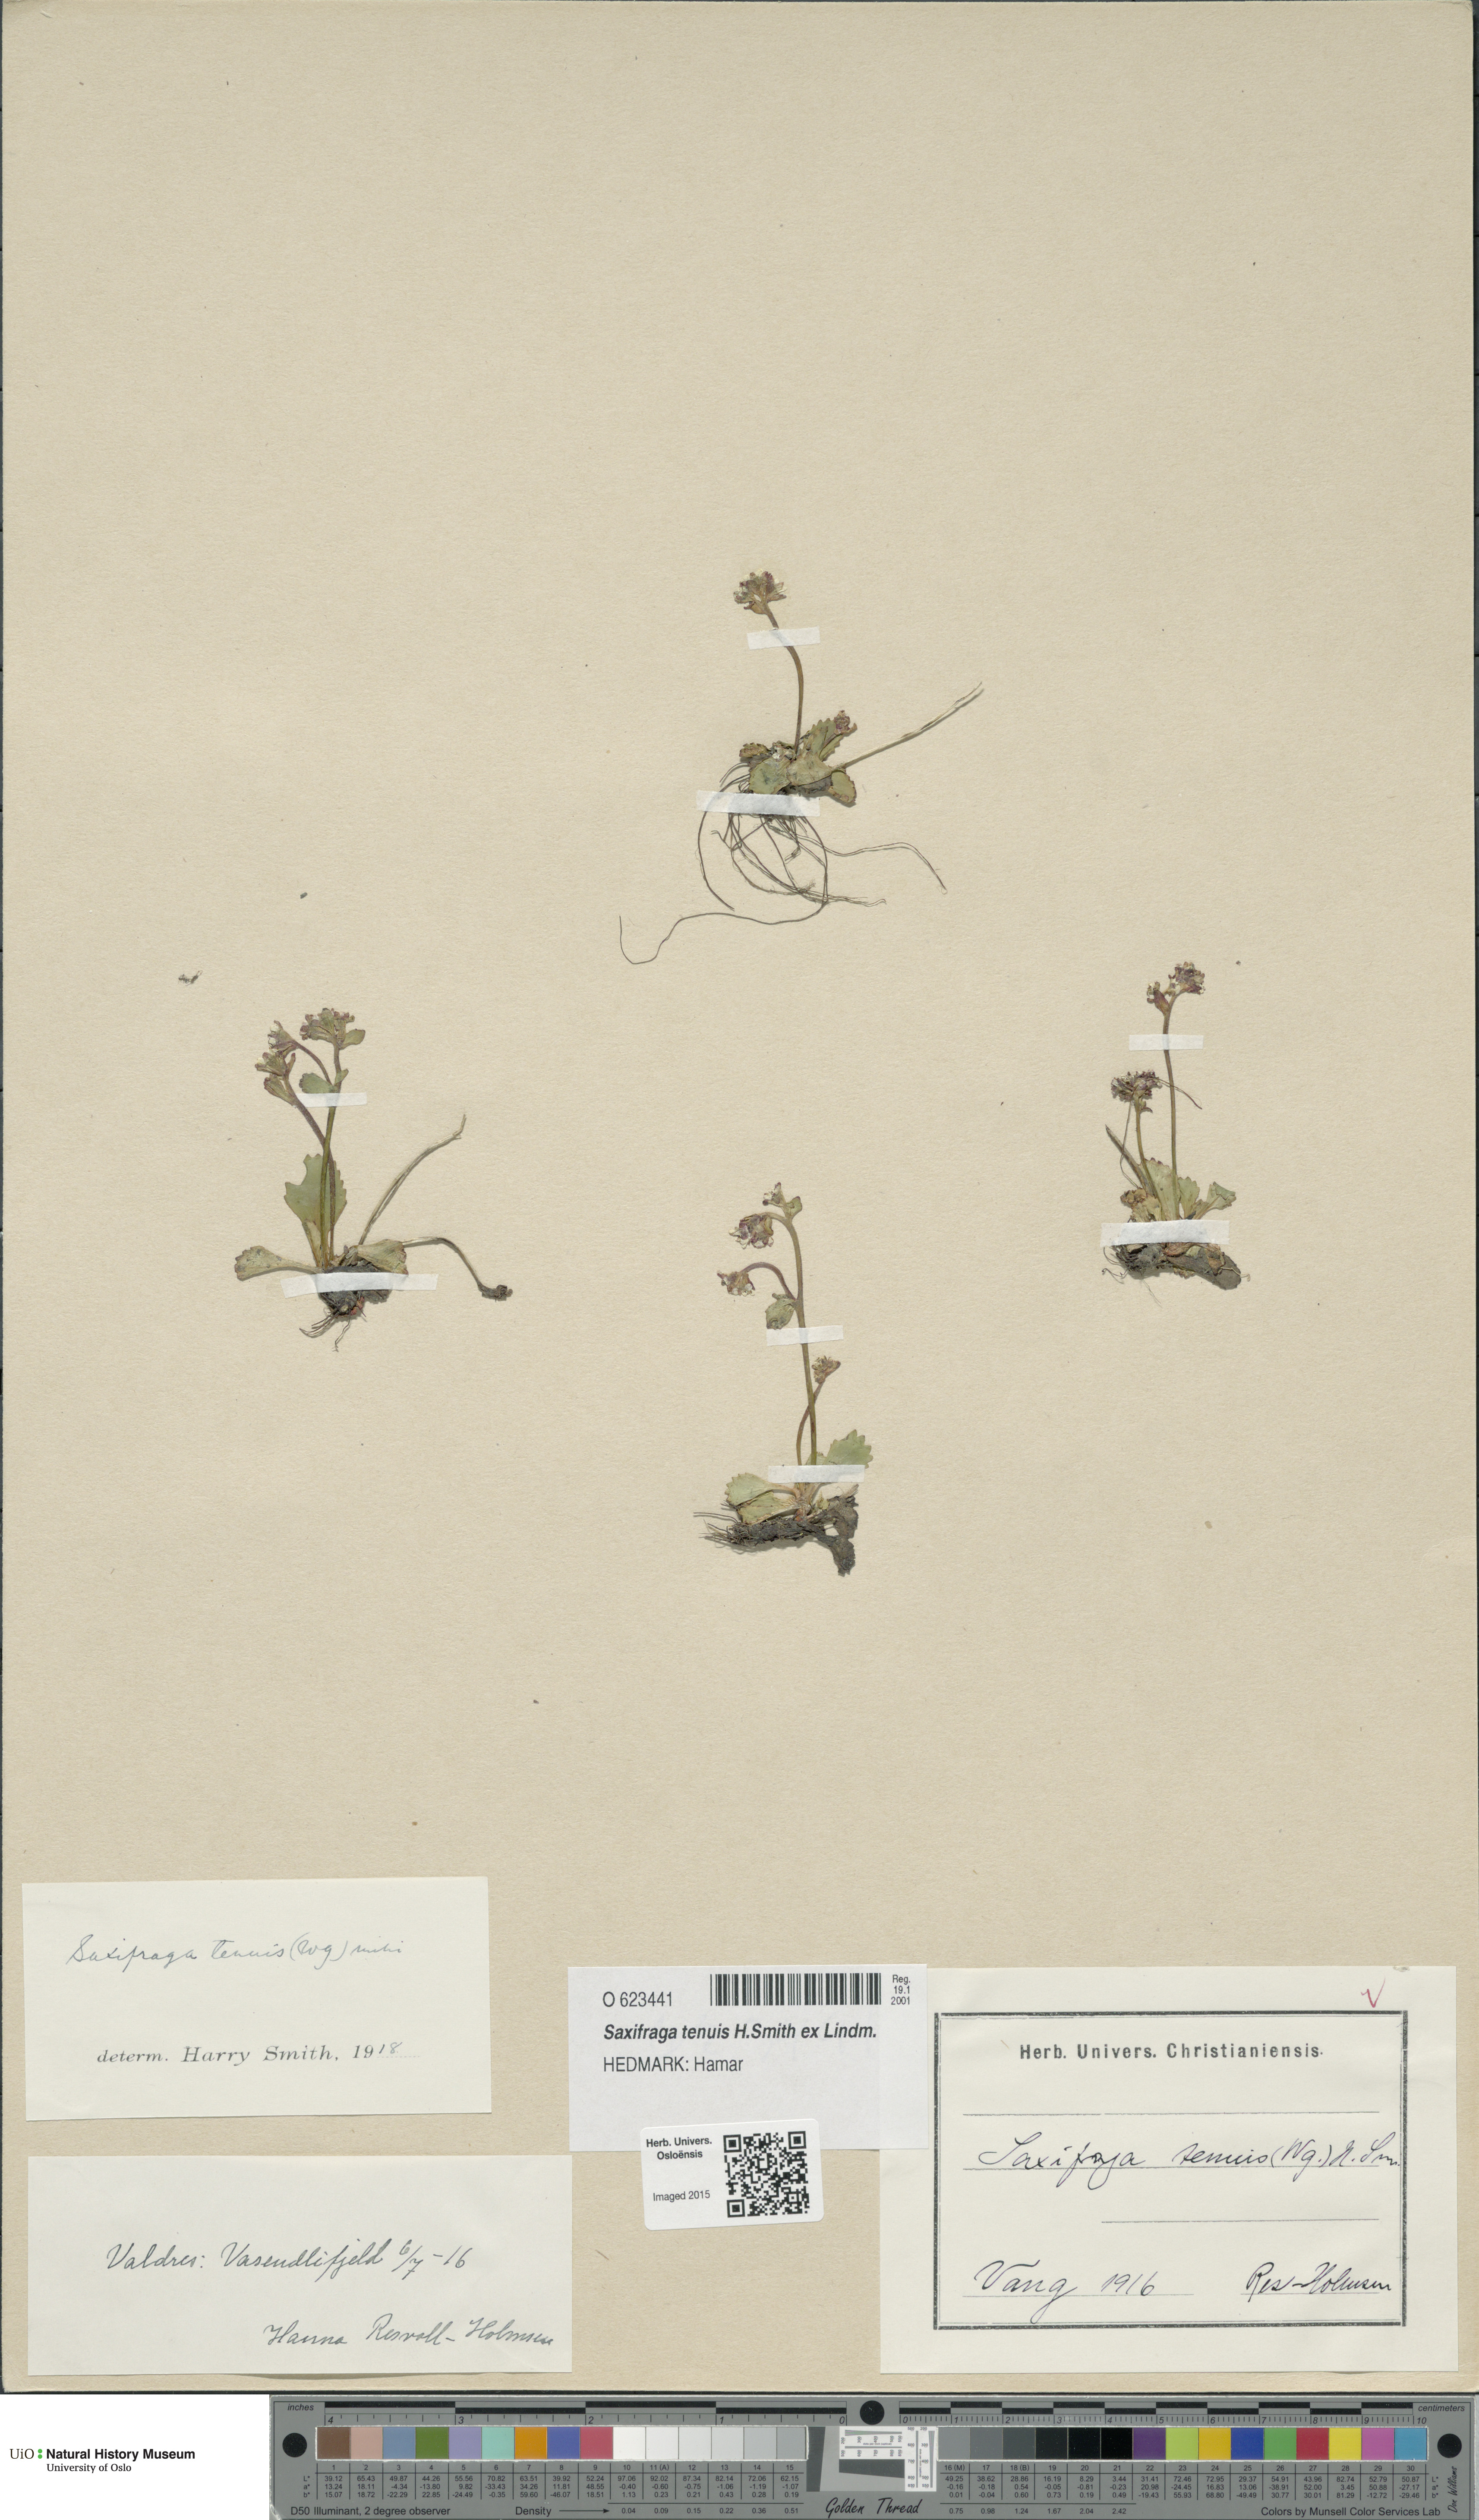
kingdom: Plantae
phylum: Tracheophyta
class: Magnoliopsida
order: Saxifragales
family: Saxifragaceae
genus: Micranthes
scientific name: Micranthes tenuis
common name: Ottertail pass saxifrage
